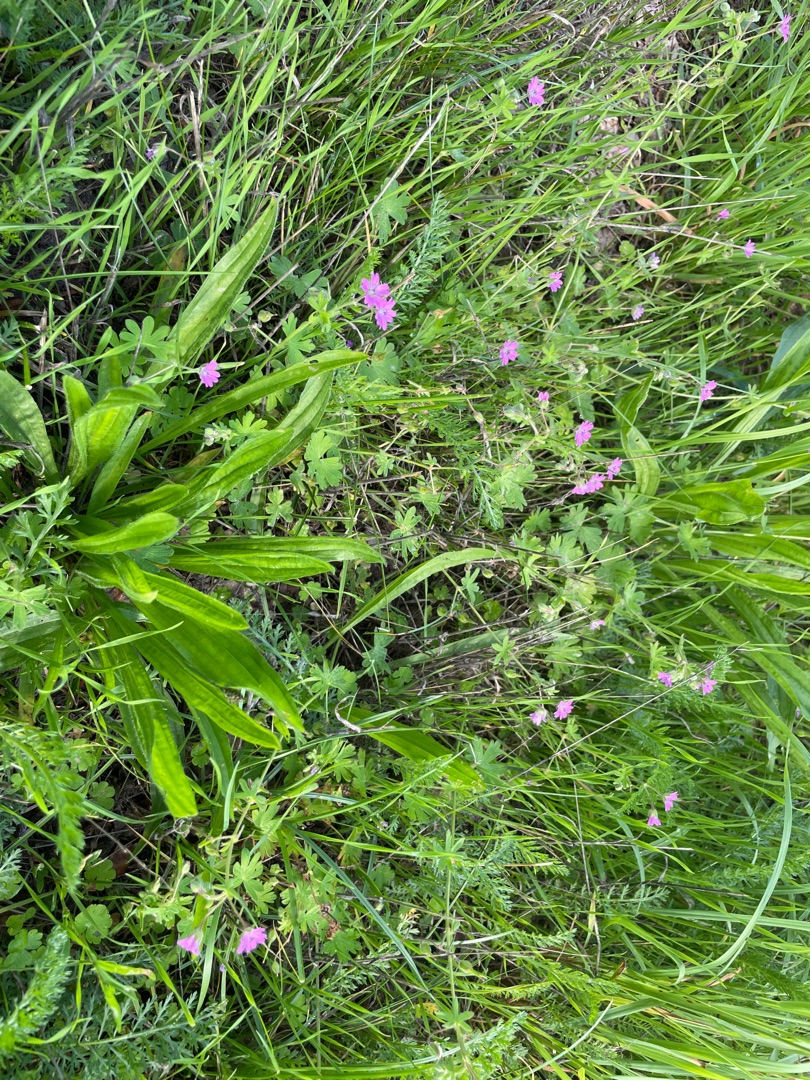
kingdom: Plantae
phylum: Tracheophyta
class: Magnoliopsida
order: Geraniales
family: Geraniaceae
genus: Geranium
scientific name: Geranium molle
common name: Blød storkenæb
